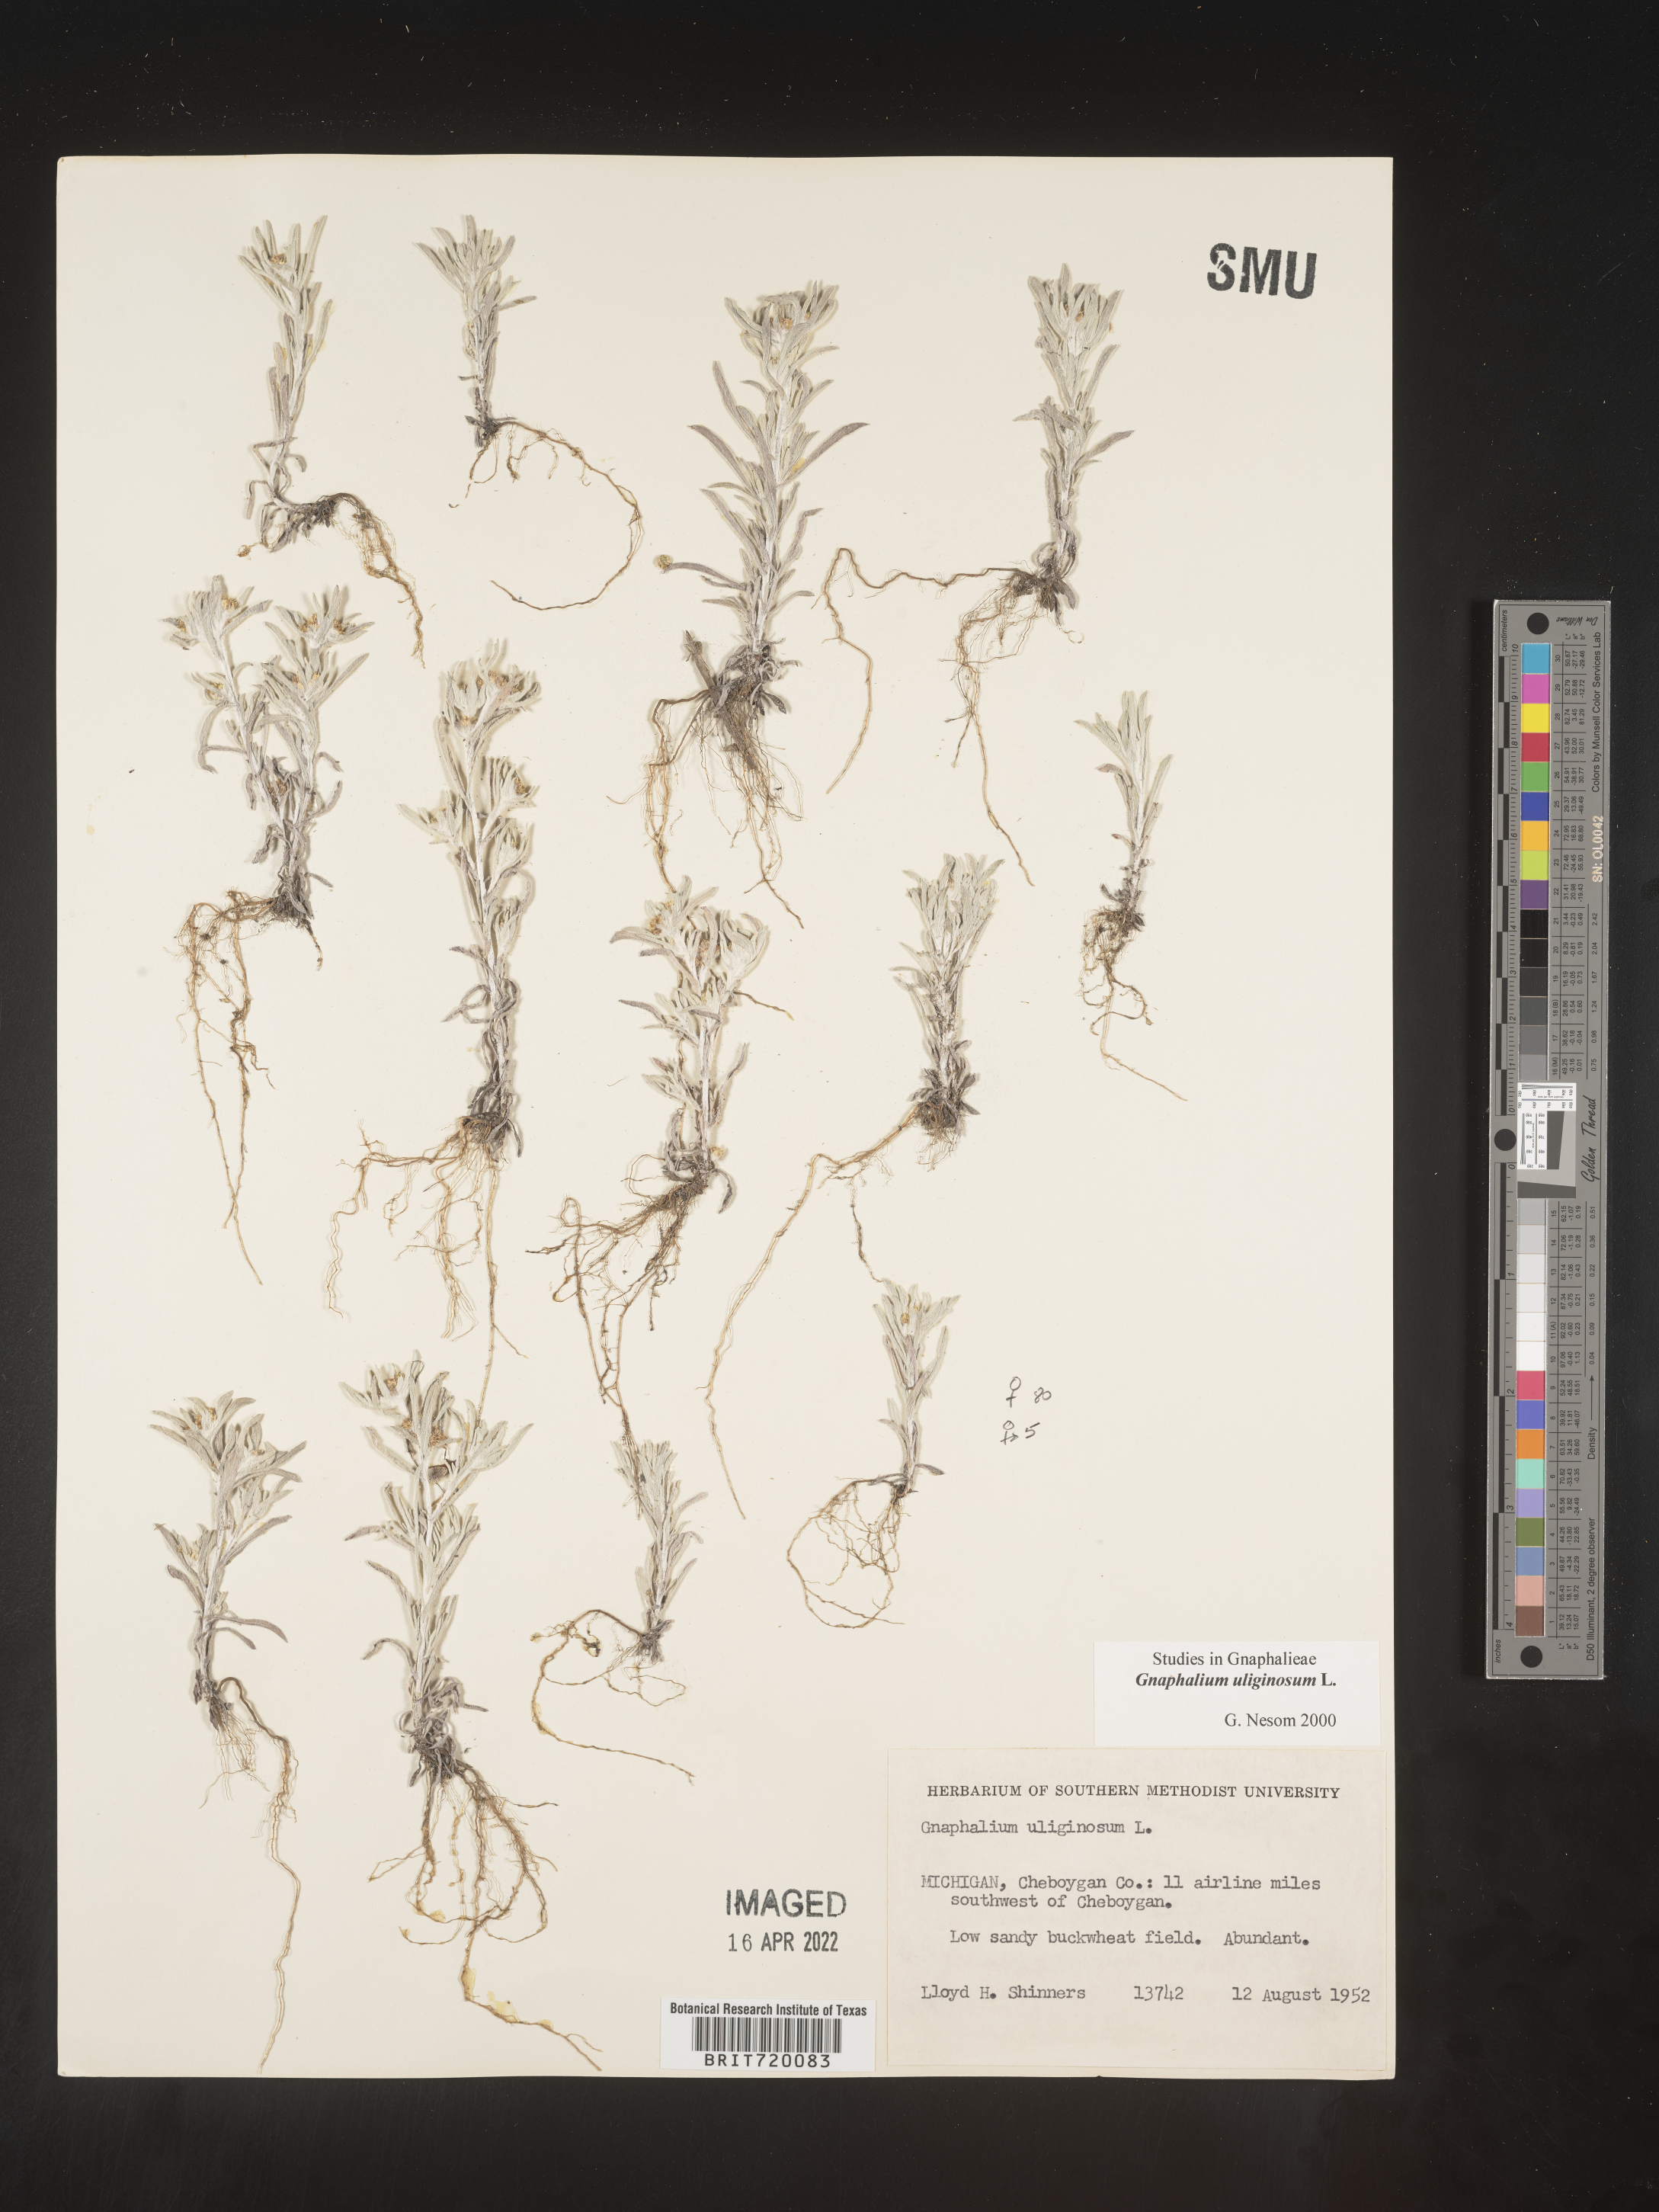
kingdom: Plantae
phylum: Tracheophyta
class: Magnoliopsida
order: Asterales
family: Asteraceae
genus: Gnaphalium
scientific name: Gnaphalium uliginosum
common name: Marsh cudweed
